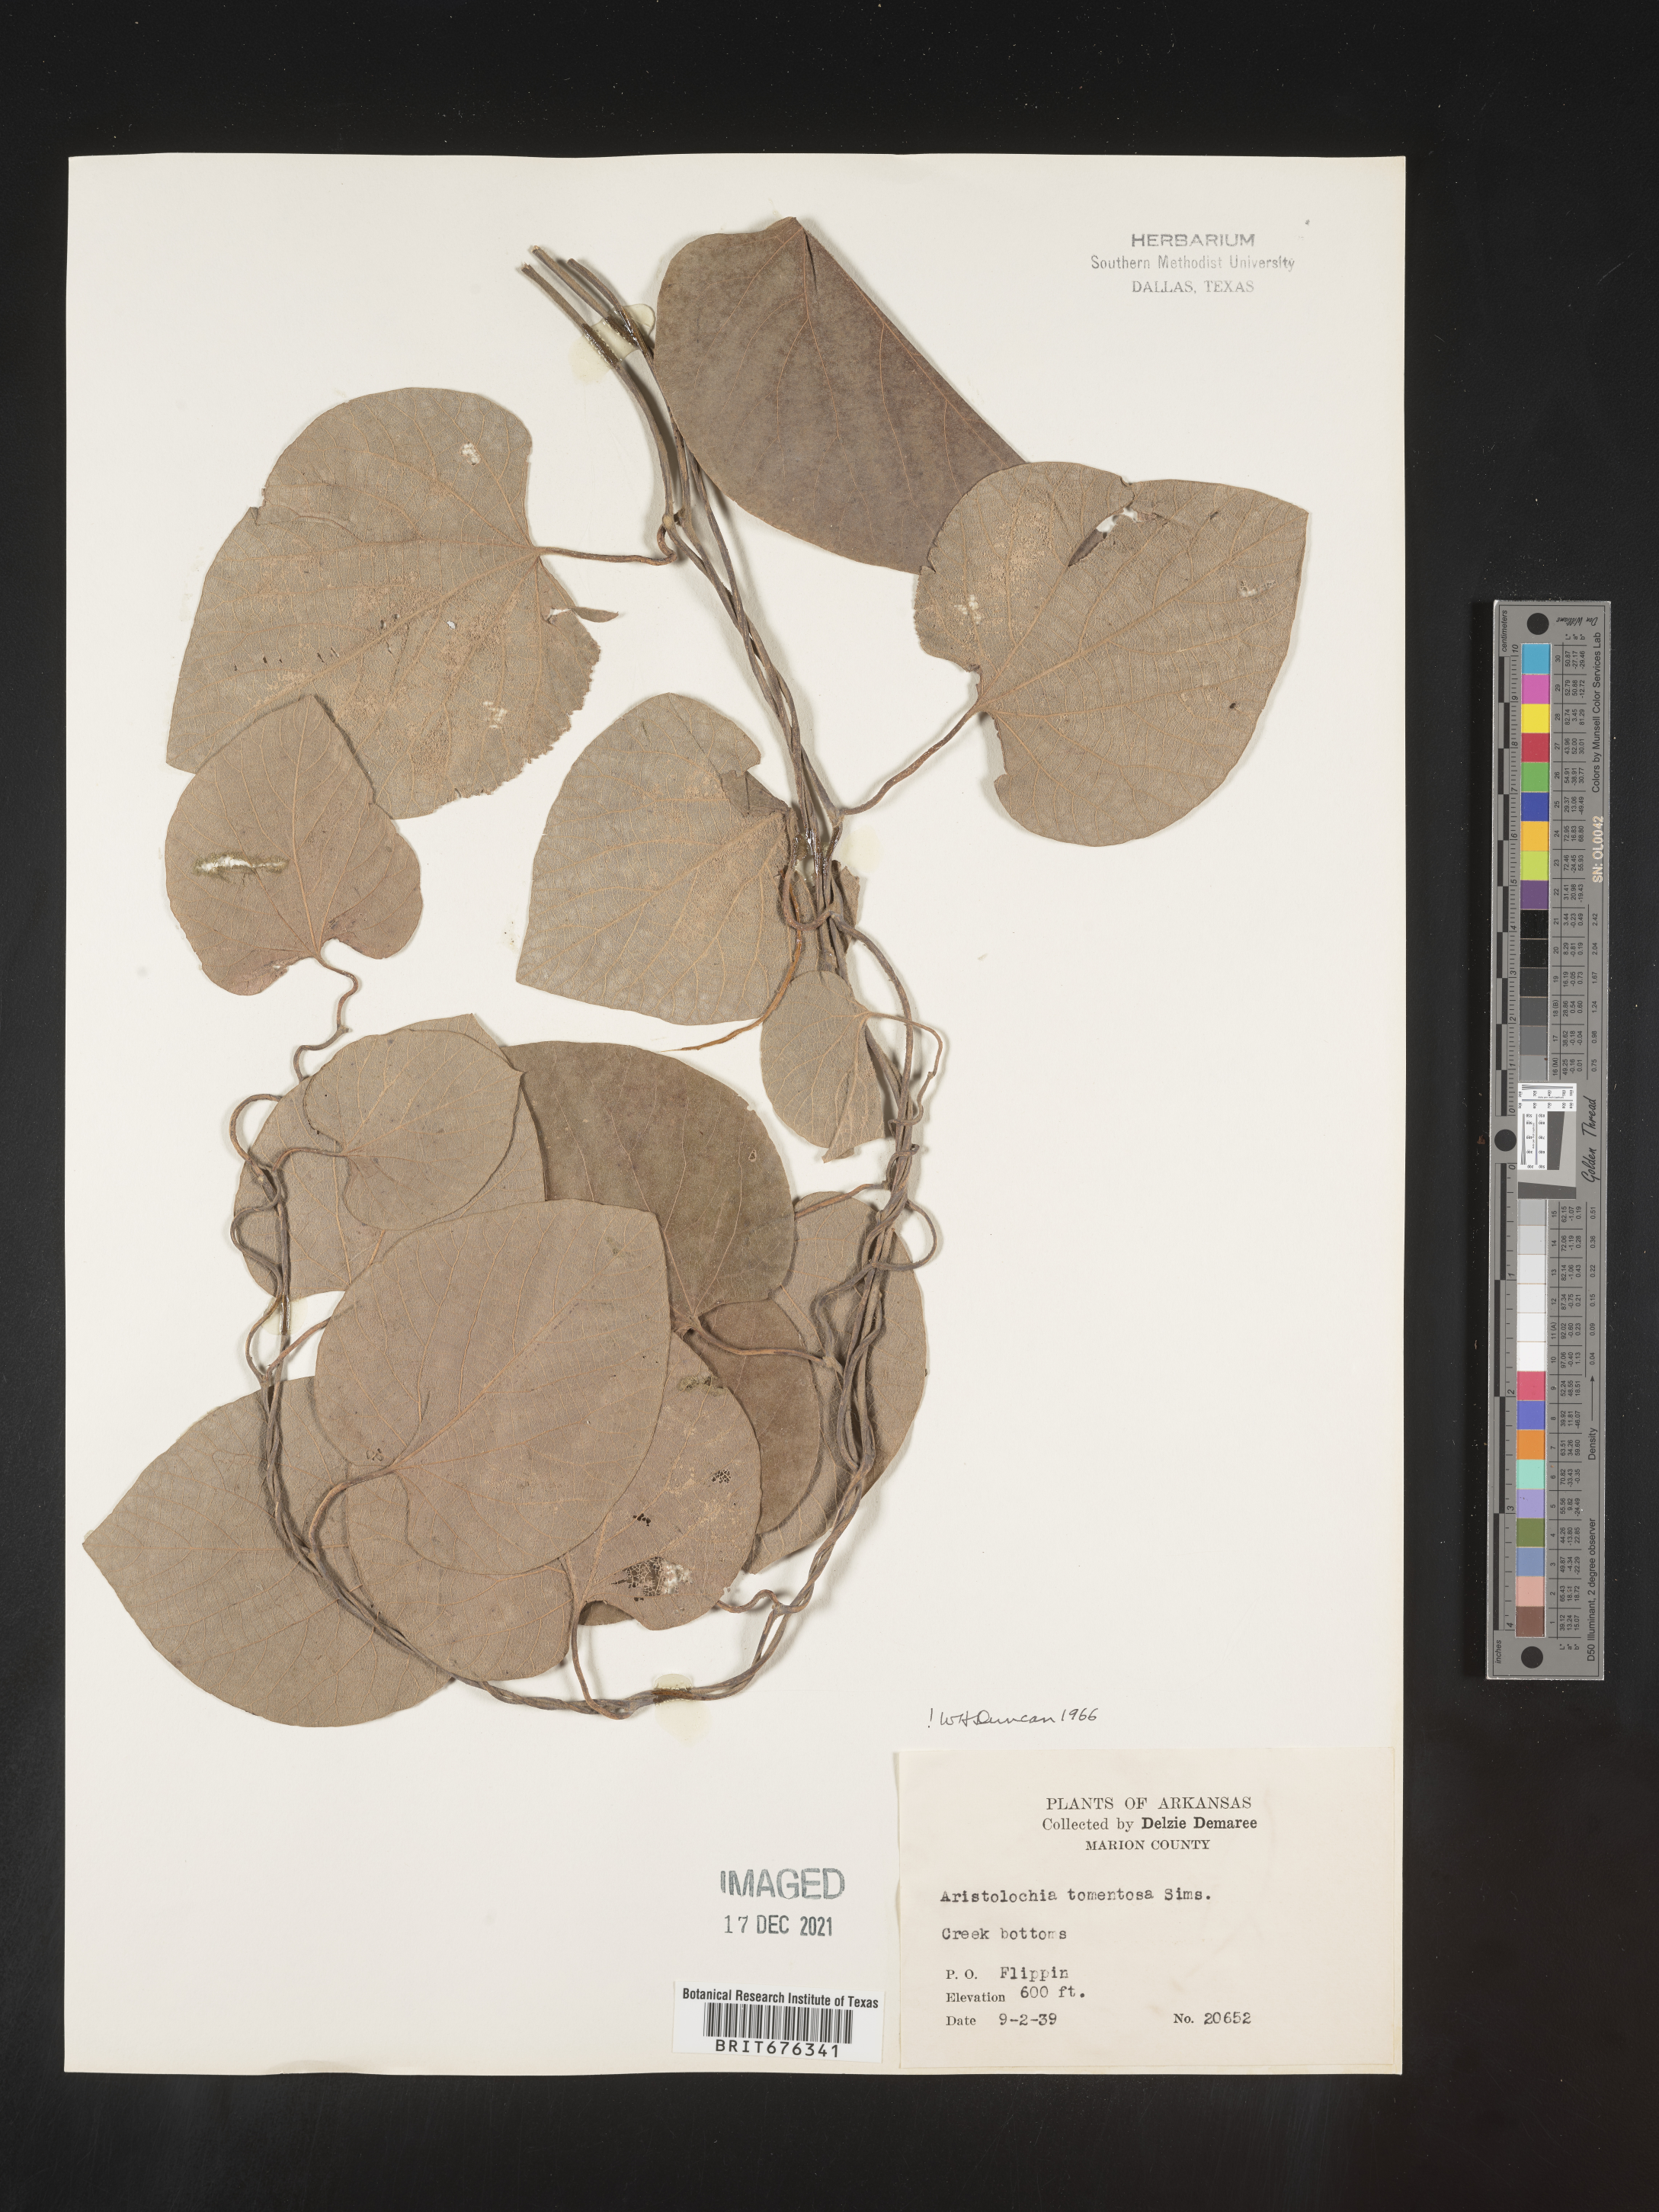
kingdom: Plantae
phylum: Tracheophyta
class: Magnoliopsida
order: Piperales
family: Aristolochiaceae
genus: Isotrema
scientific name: Isotrema tomentosum
